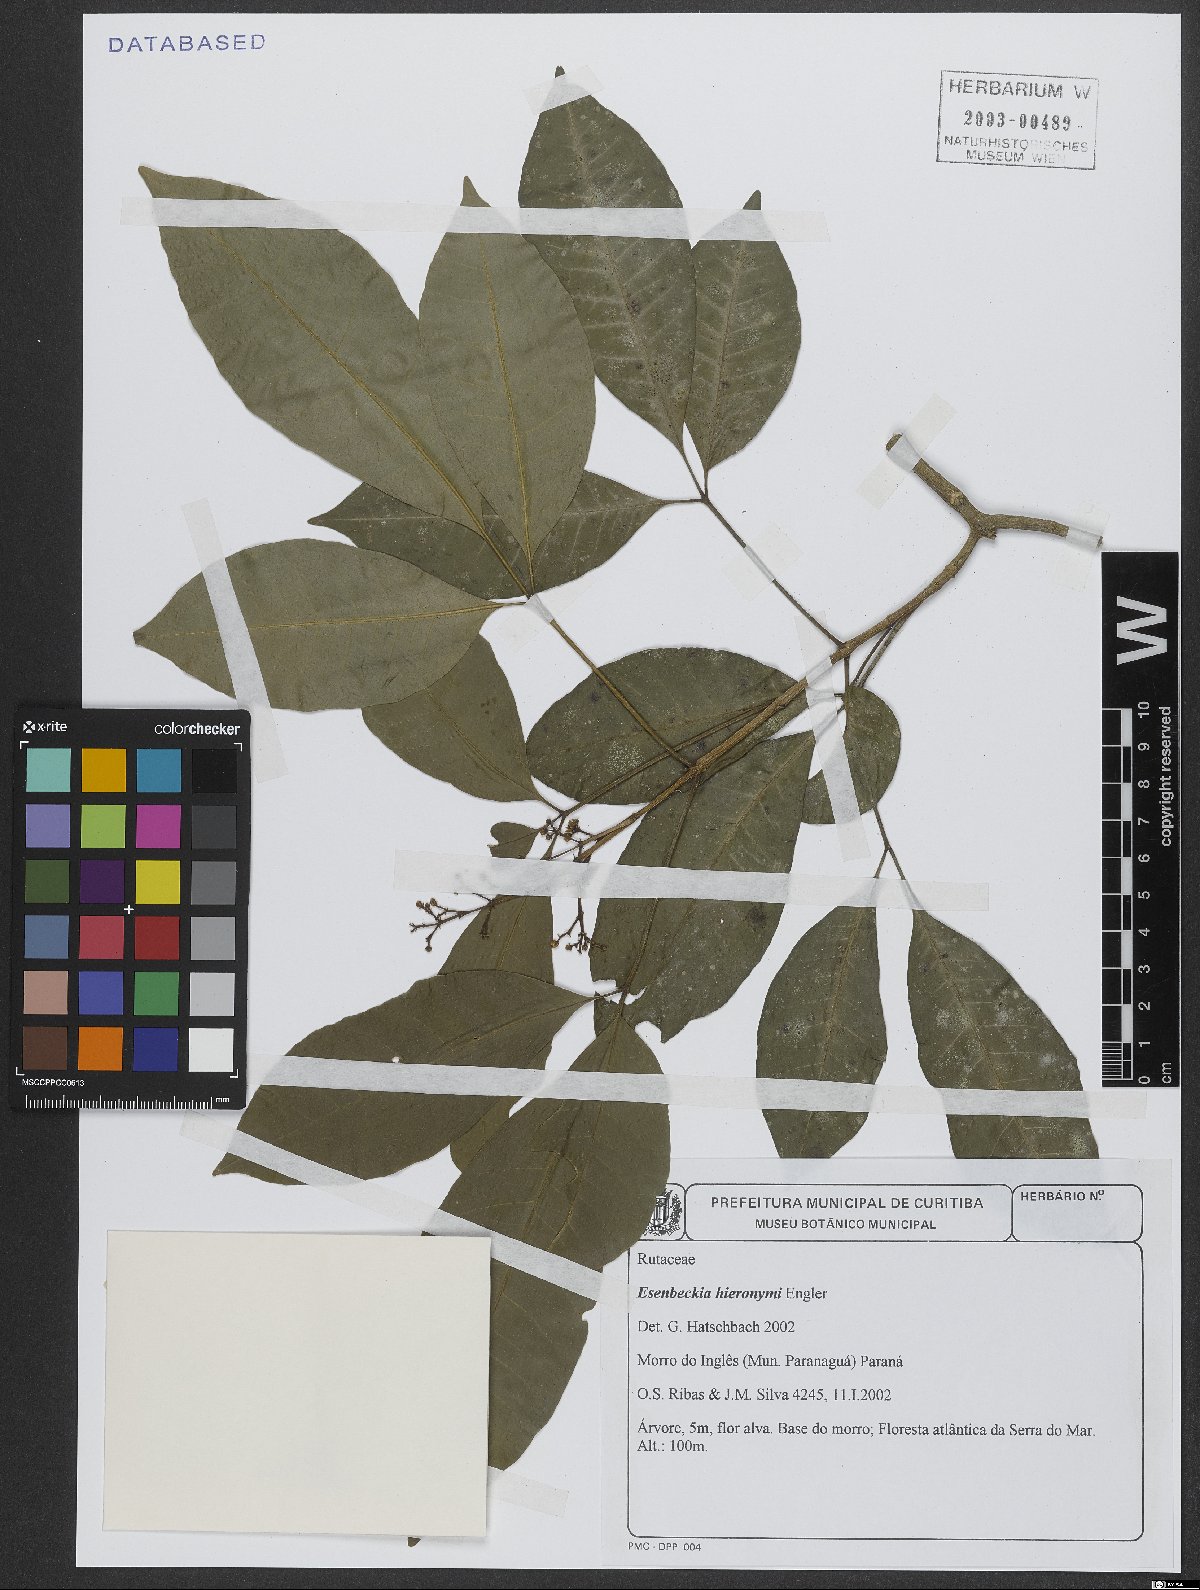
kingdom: Plantae
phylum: Tracheophyta
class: Magnoliopsida
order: Sapindales
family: Rutaceae
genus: Esenbeckia
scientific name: Esenbeckia hieronymi
